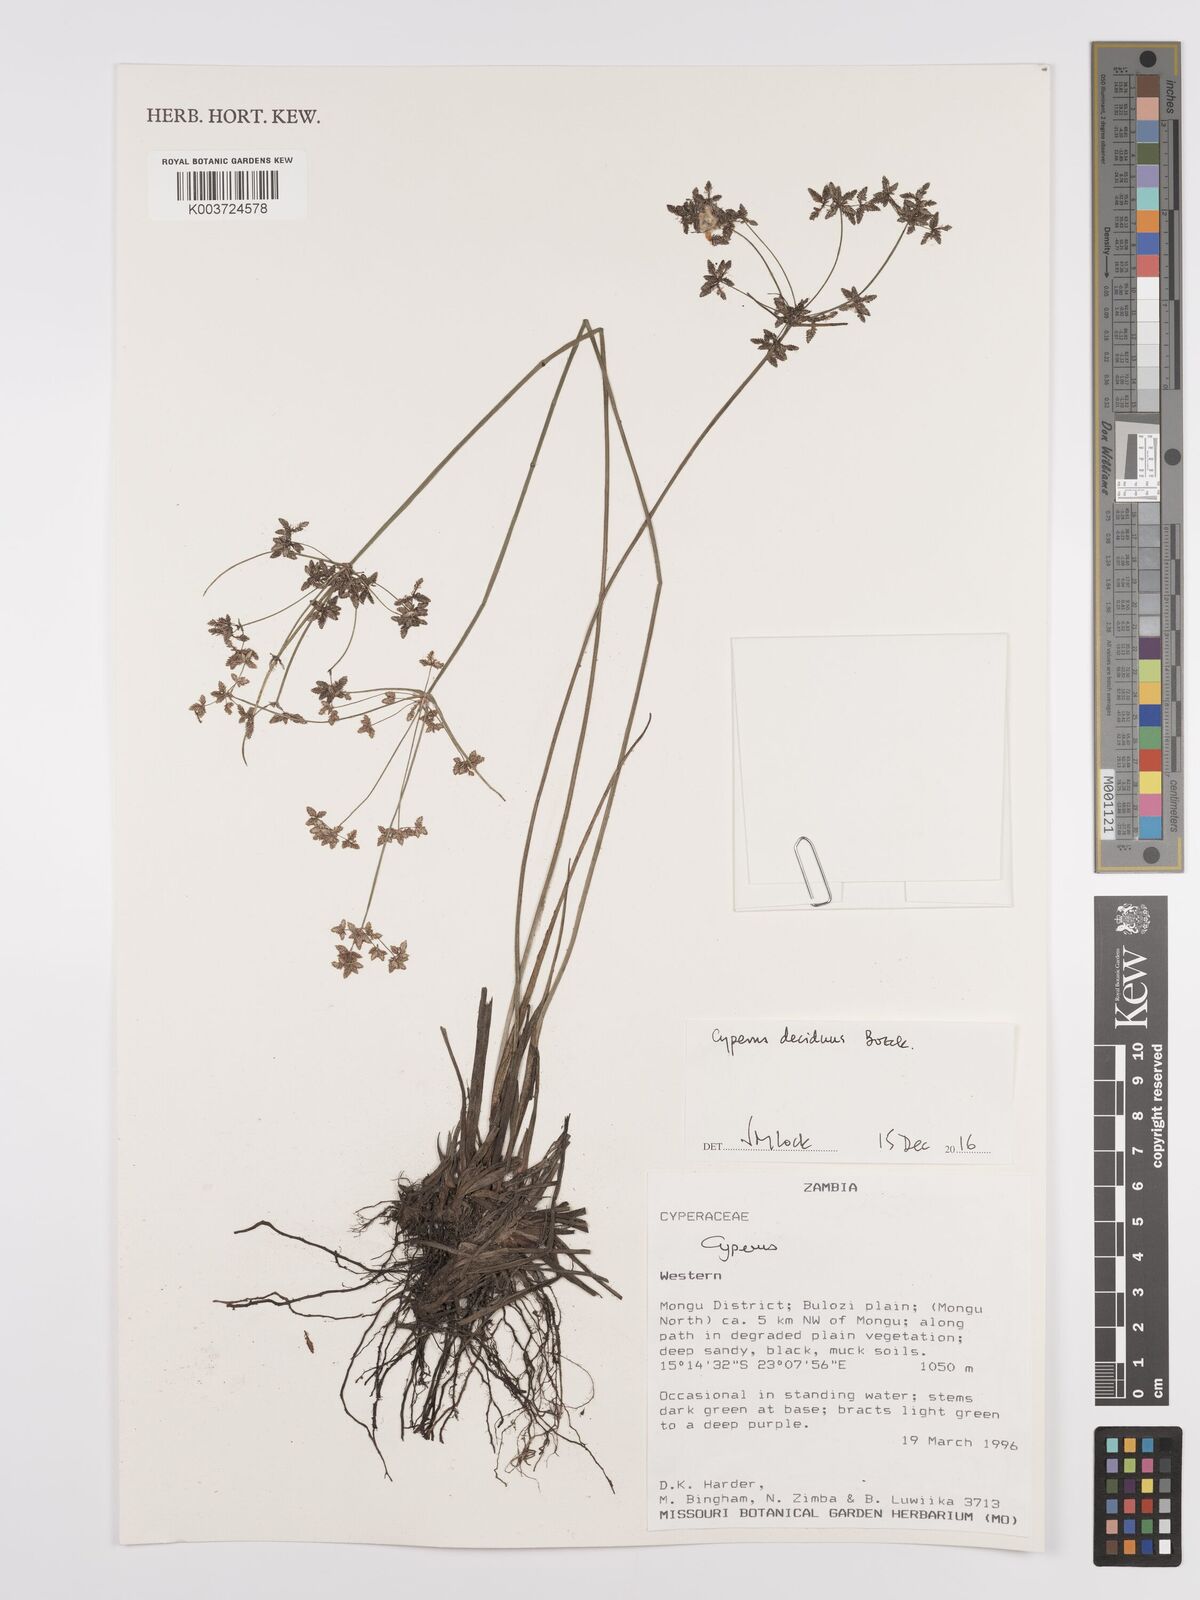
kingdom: Plantae
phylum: Tracheophyta
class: Liliopsida
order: Poales
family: Cyperaceae
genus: Cyperus
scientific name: Cyperus deciduus
